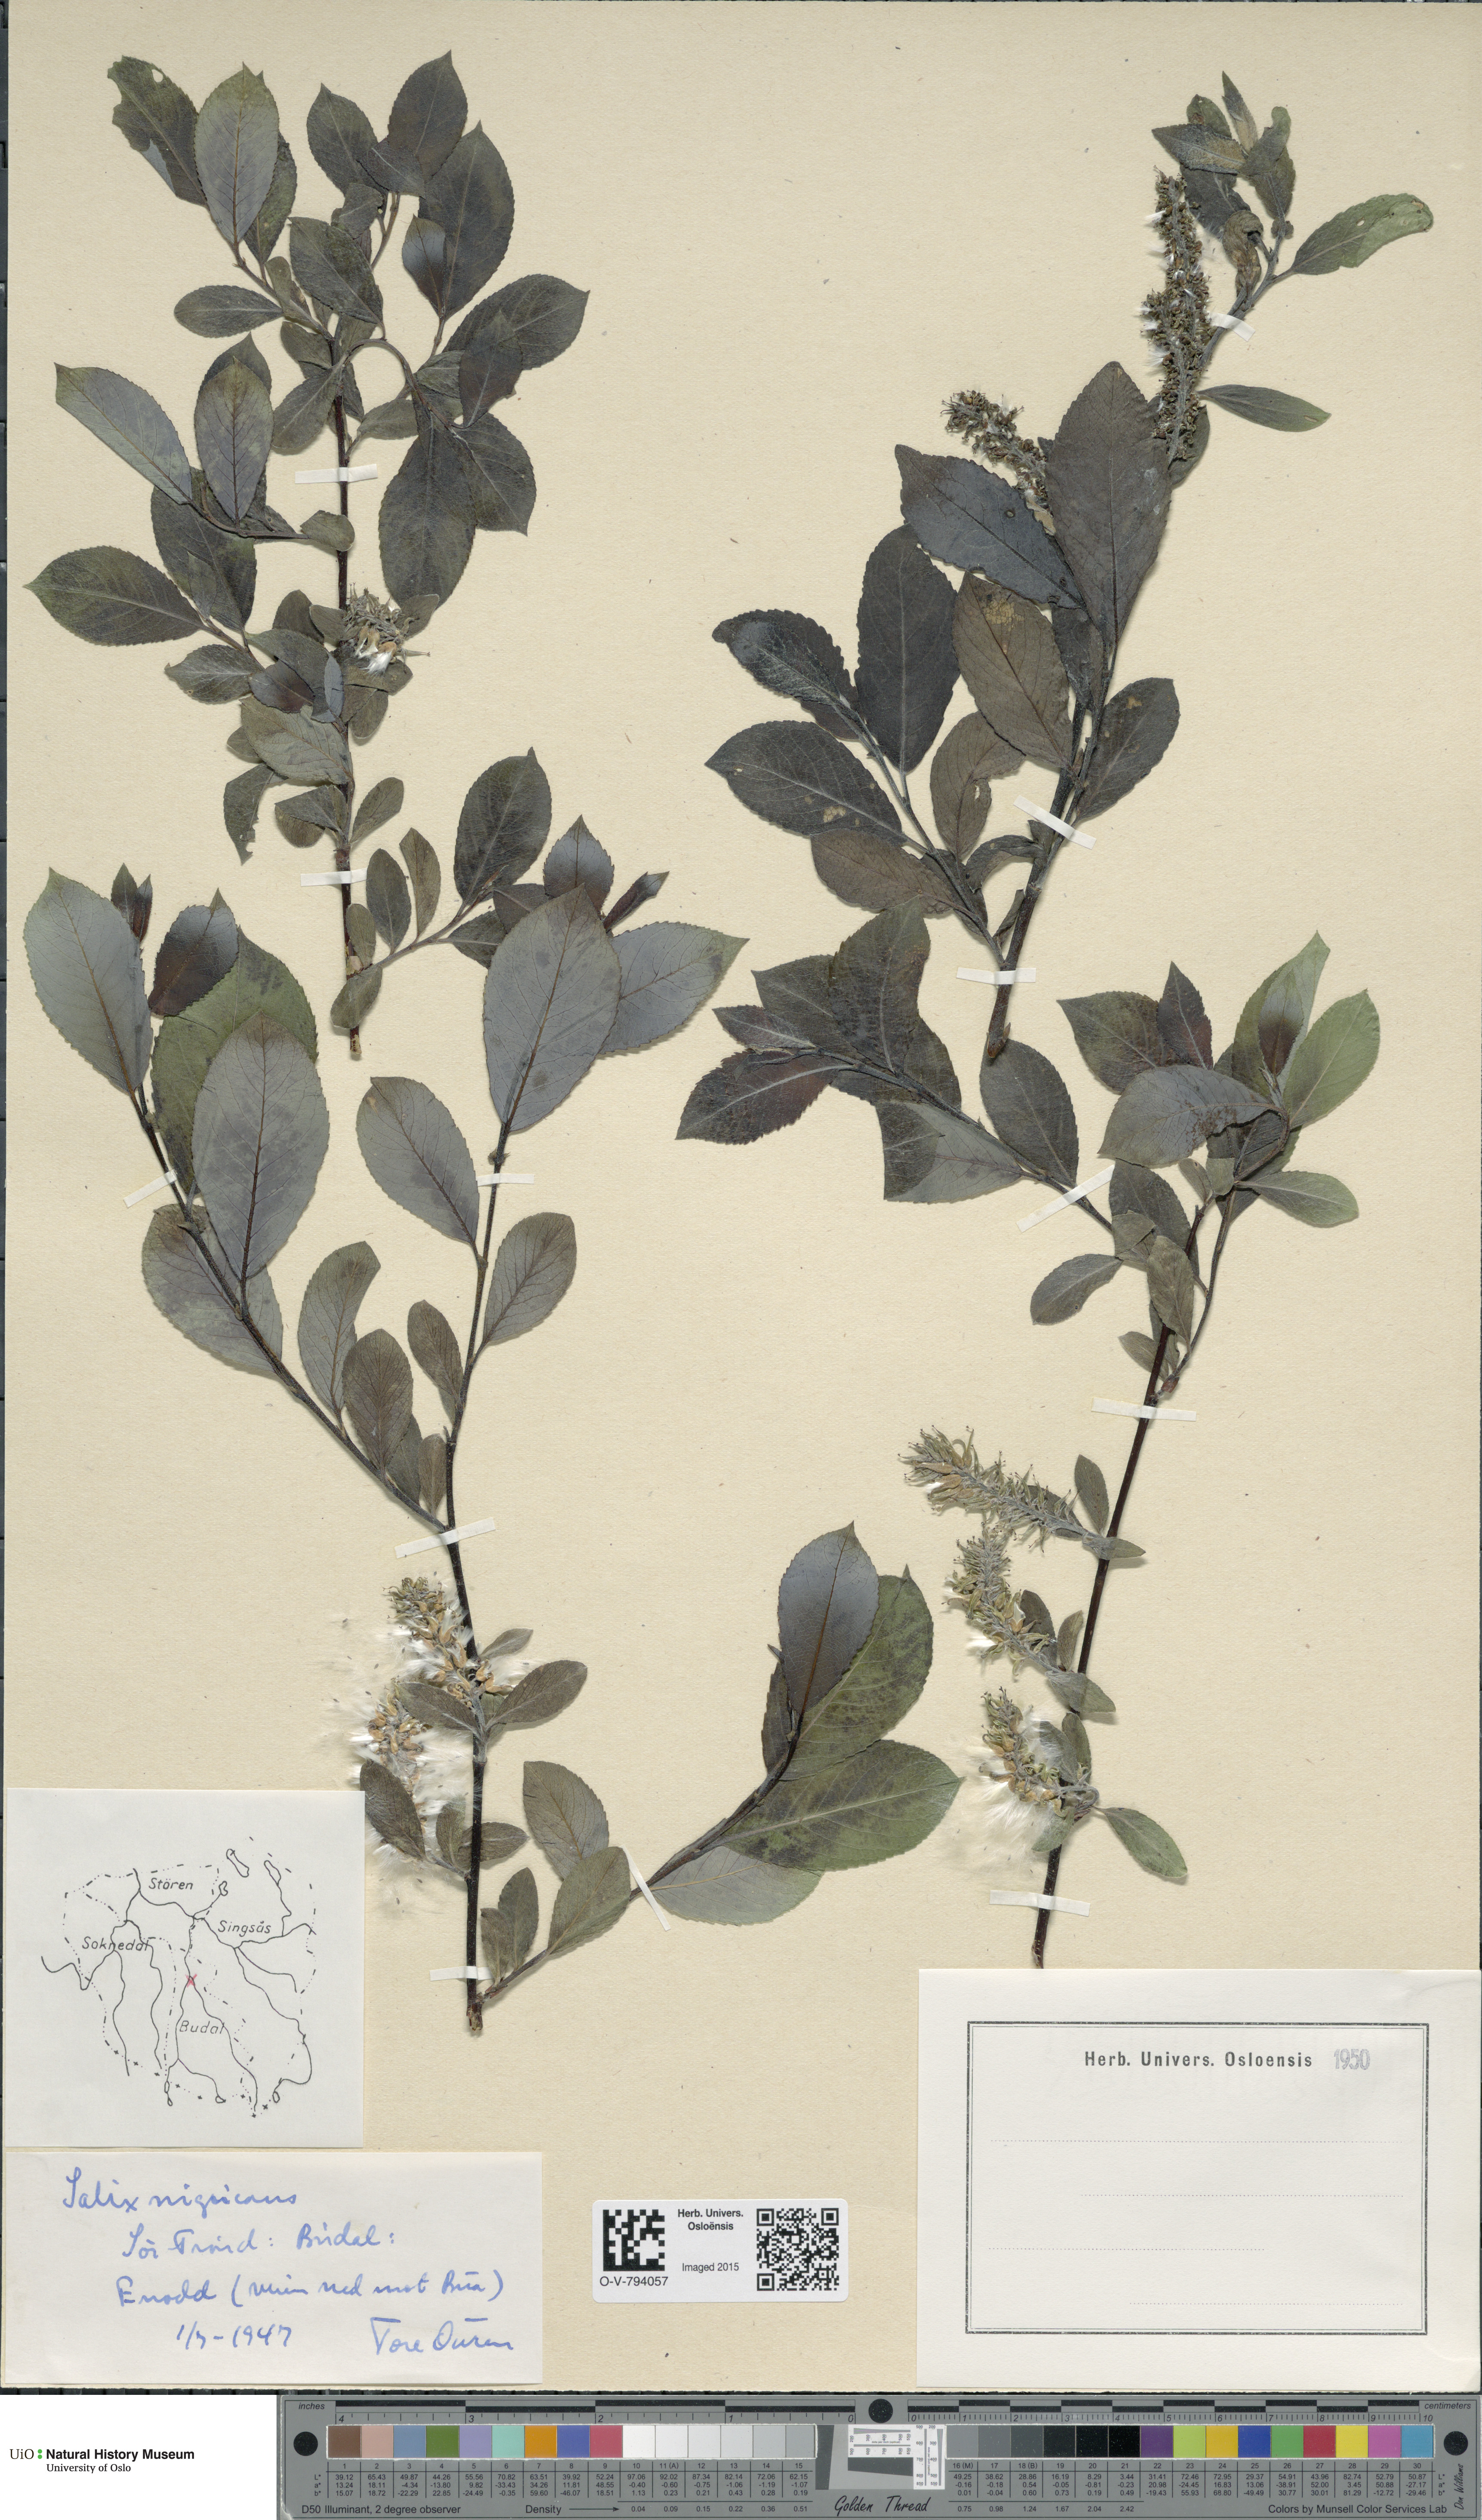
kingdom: Plantae
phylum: Tracheophyta
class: Magnoliopsida
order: Malpighiales
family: Salicaceae
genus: Salix
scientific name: Salix myrsinifolia
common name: Dark-leaved willow
